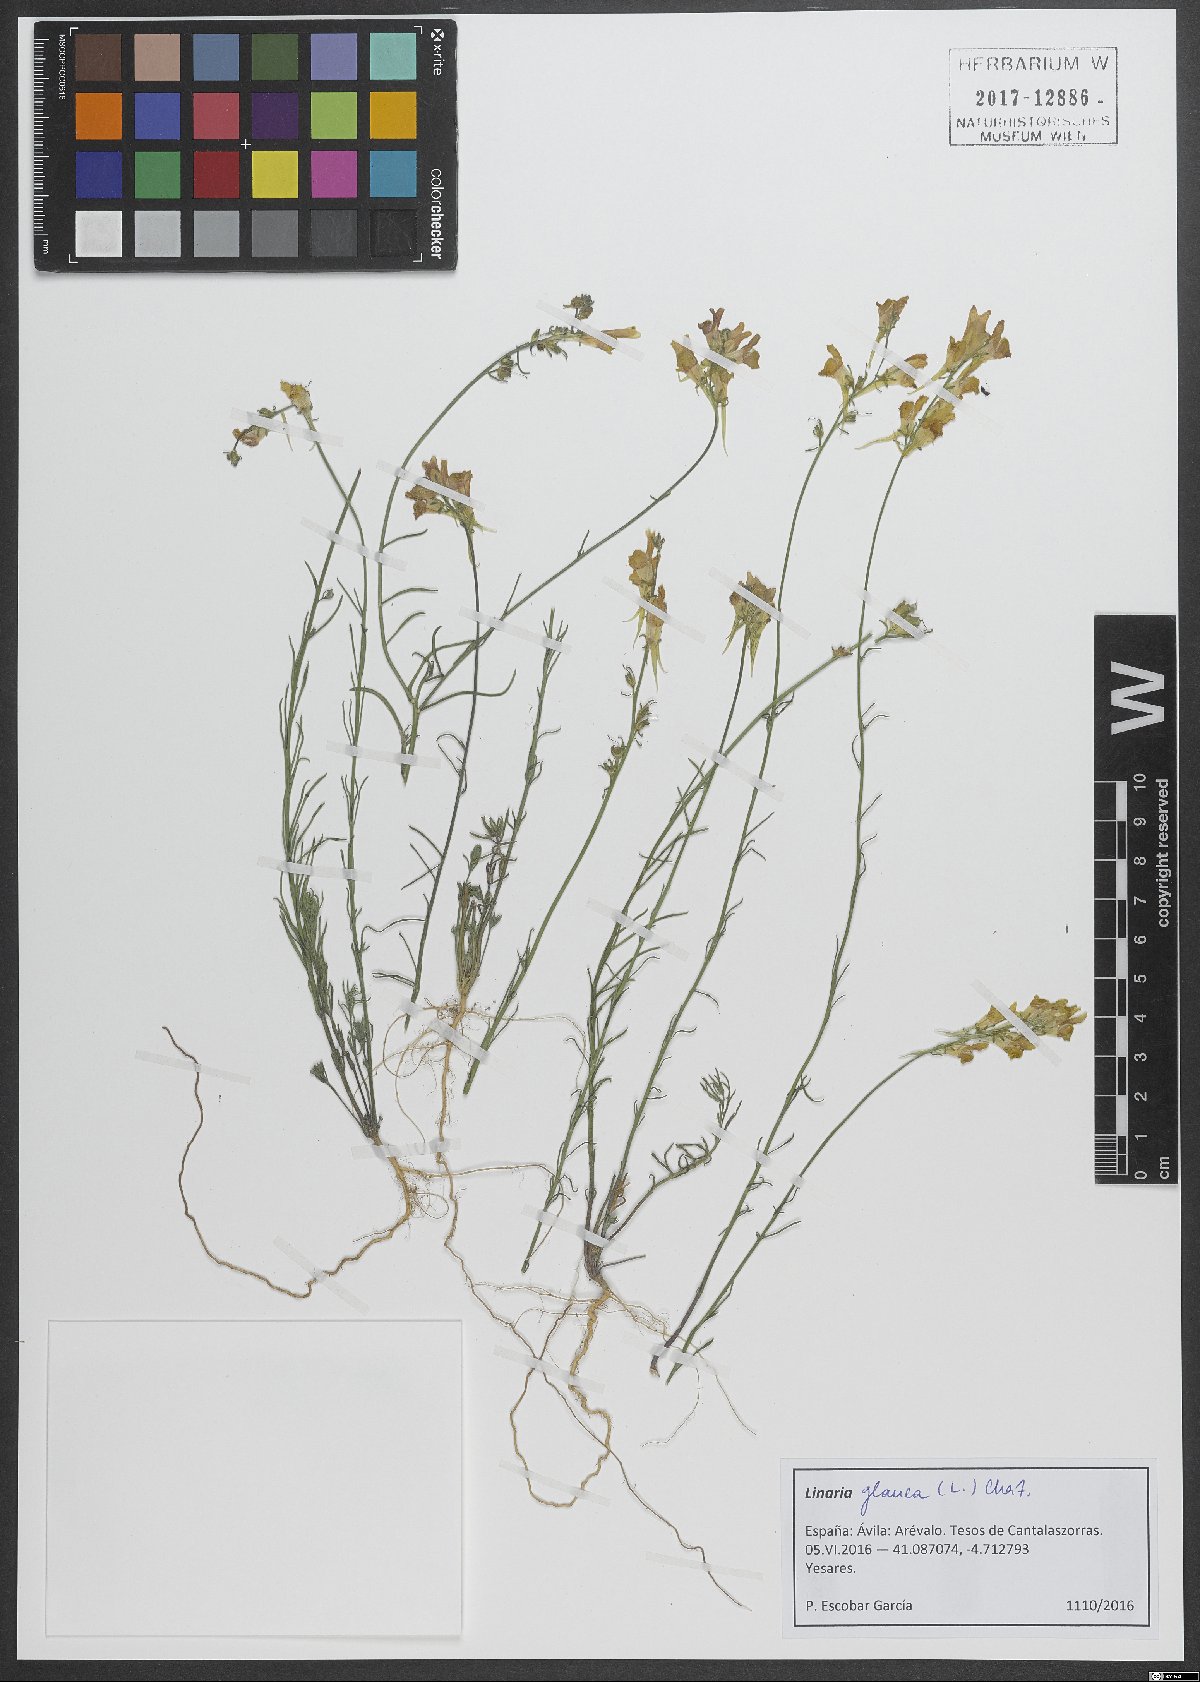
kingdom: Plantae
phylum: Tracheophyta
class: Magnoliopsida
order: Lamiales
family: Plantaginaceae
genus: Linaria
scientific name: Linaria vulgaris
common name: Butter and eggs
